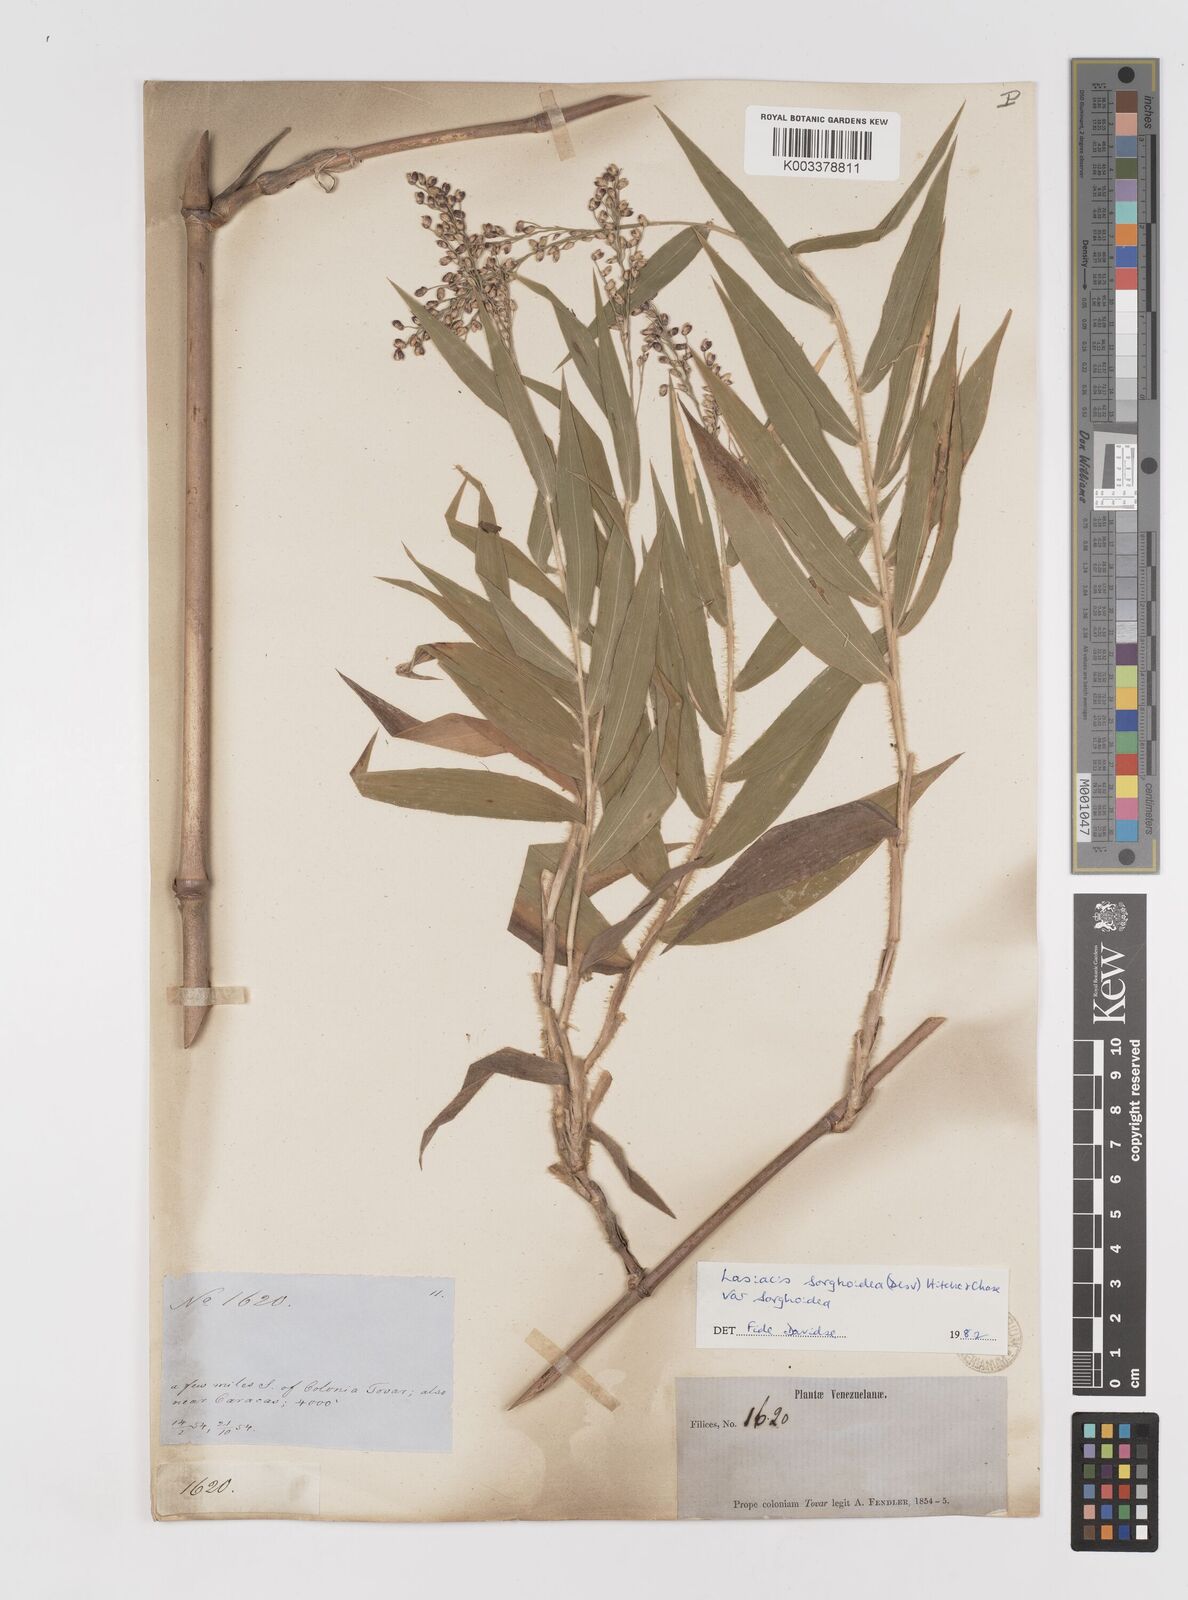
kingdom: Plantae
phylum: Tracheophyta
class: Liliopsida
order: Poales
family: Poaceae
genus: Lasiacis
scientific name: Lasiacis
